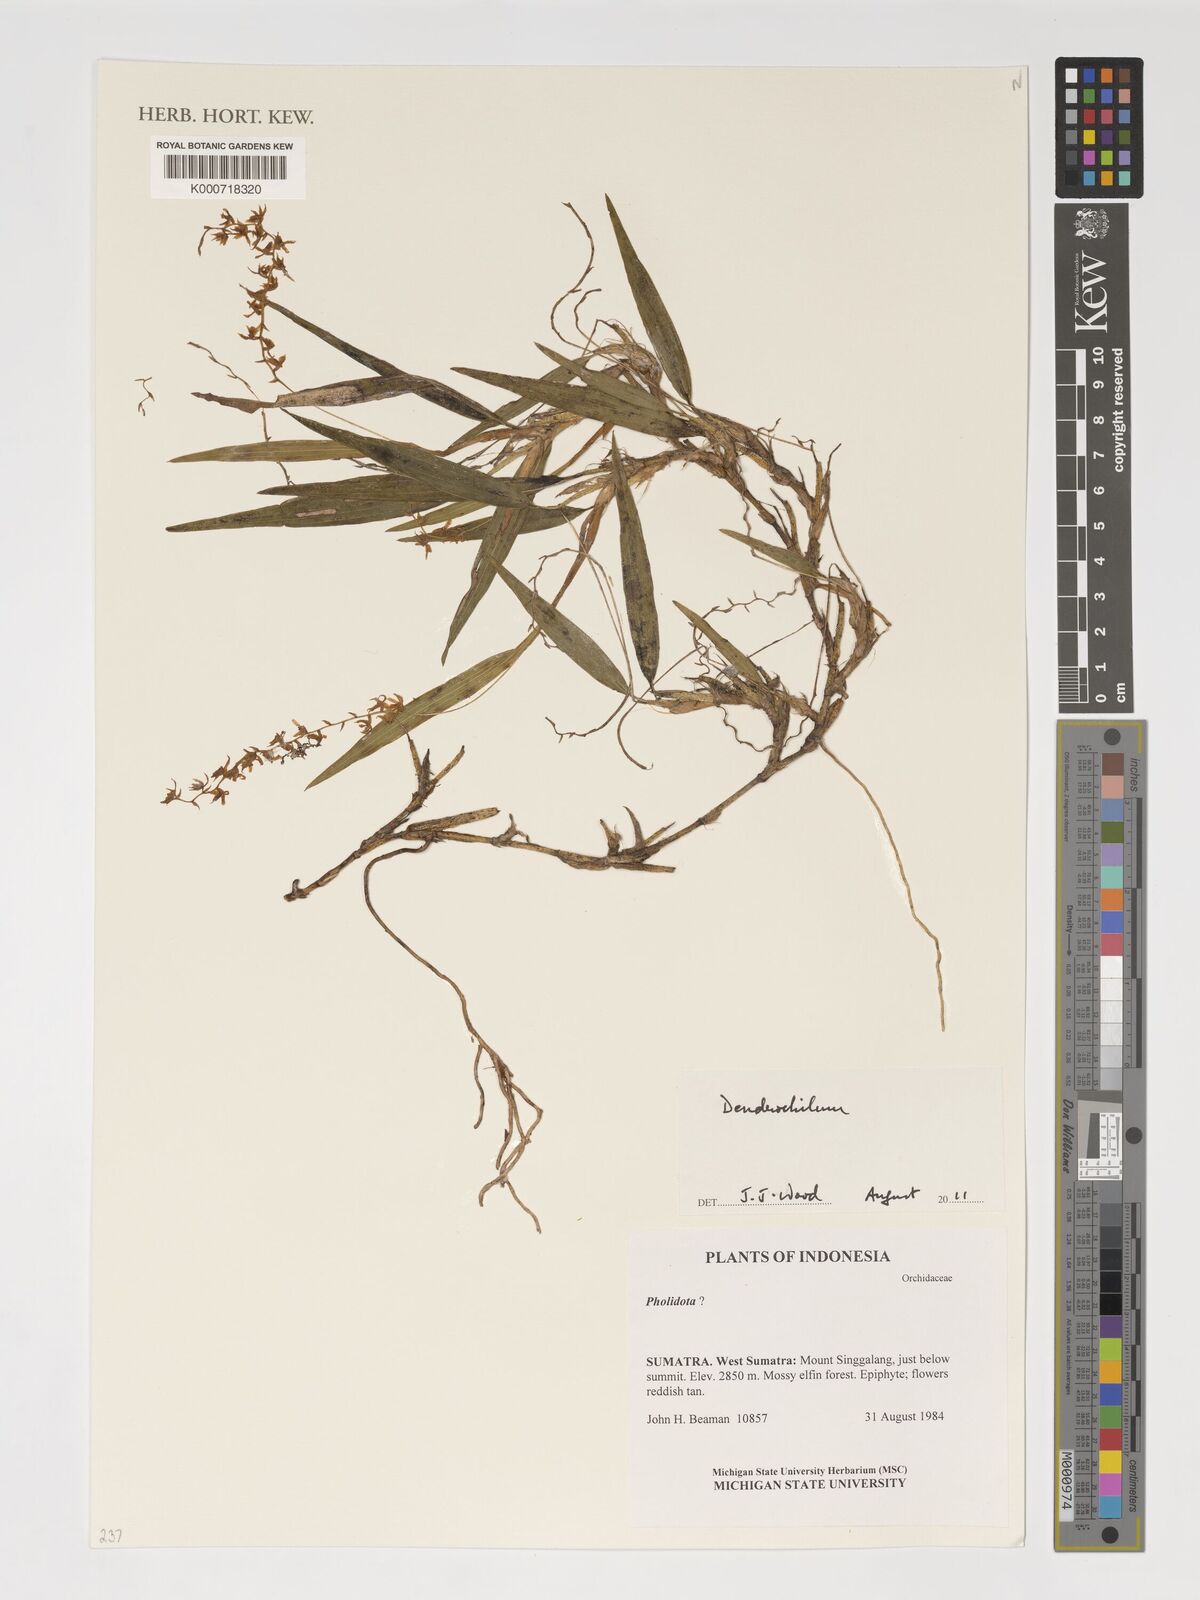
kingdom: Plantae
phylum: Tracheophyta
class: Liliopsida
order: Asparagales
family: Orchidaceae
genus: Coelogyne
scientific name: Coelogyne
